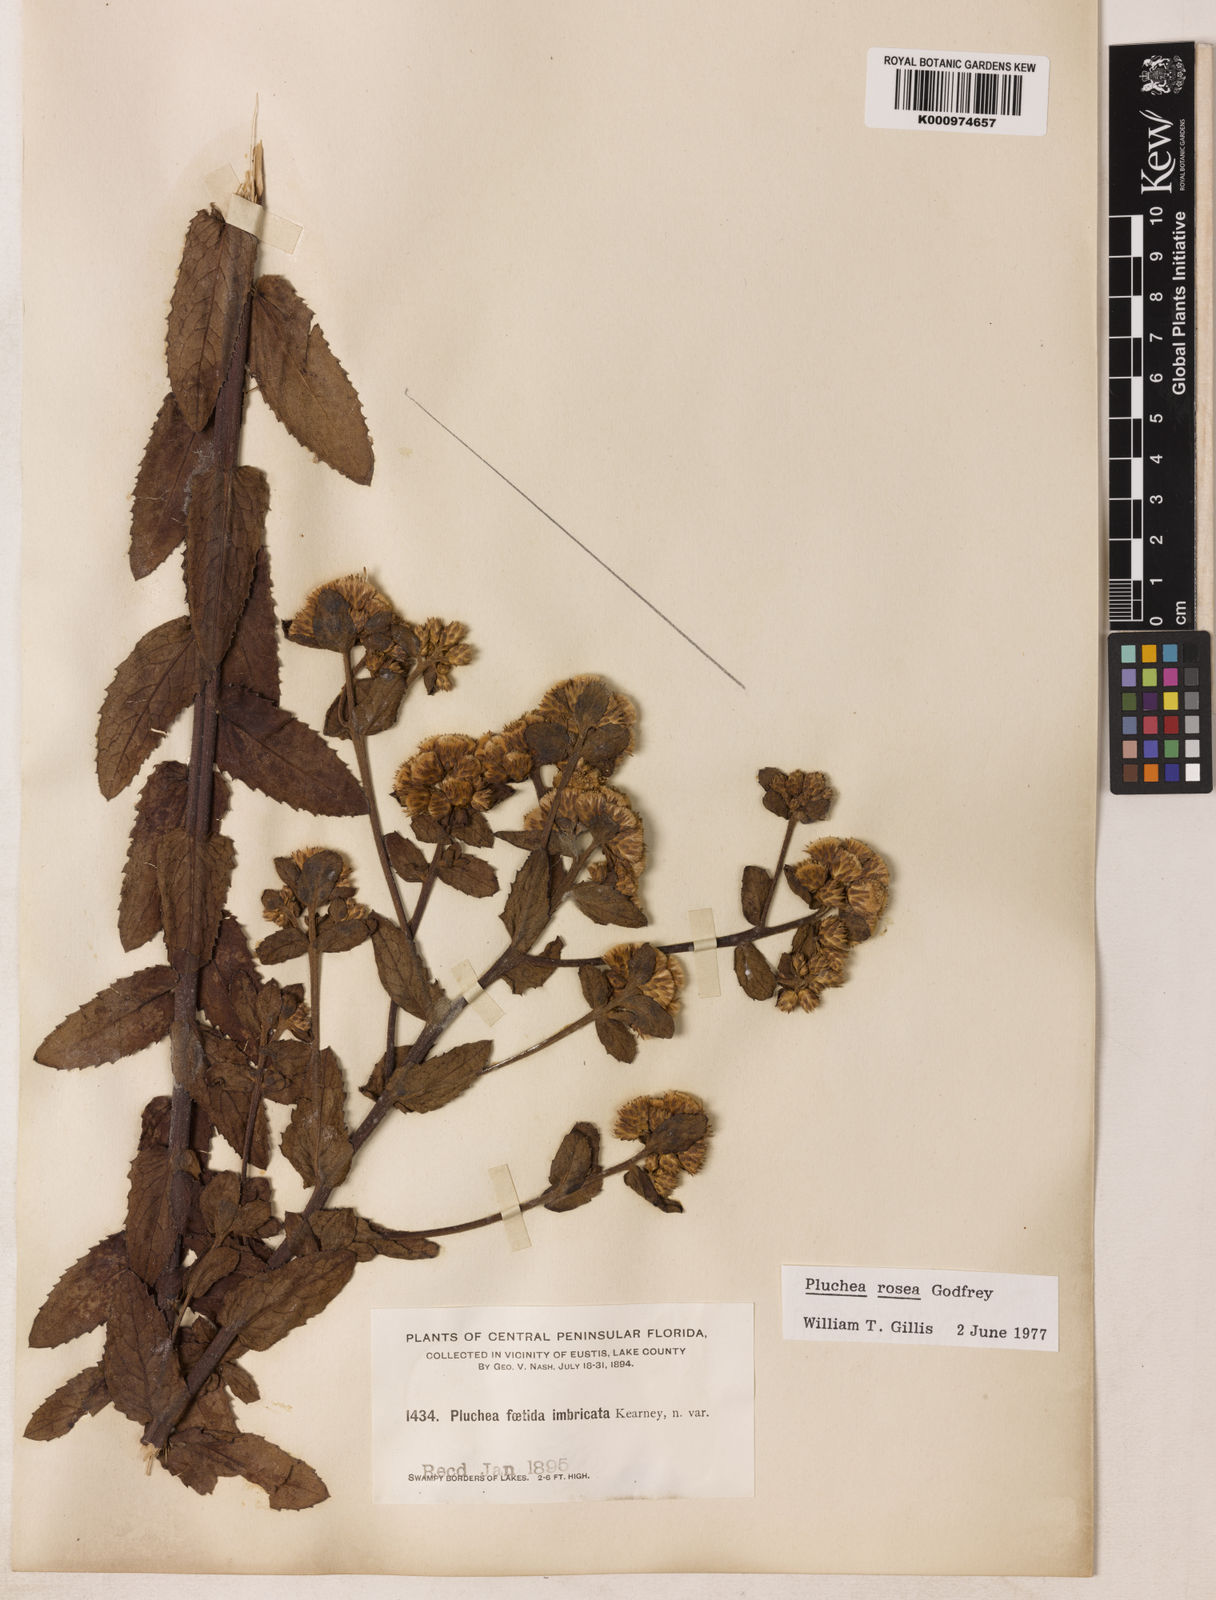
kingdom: Plantae
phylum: Tracheophyta
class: Magnoliopsida
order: Asterales
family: Asteraceae
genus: Pluchea
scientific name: Pluchea baccharis
